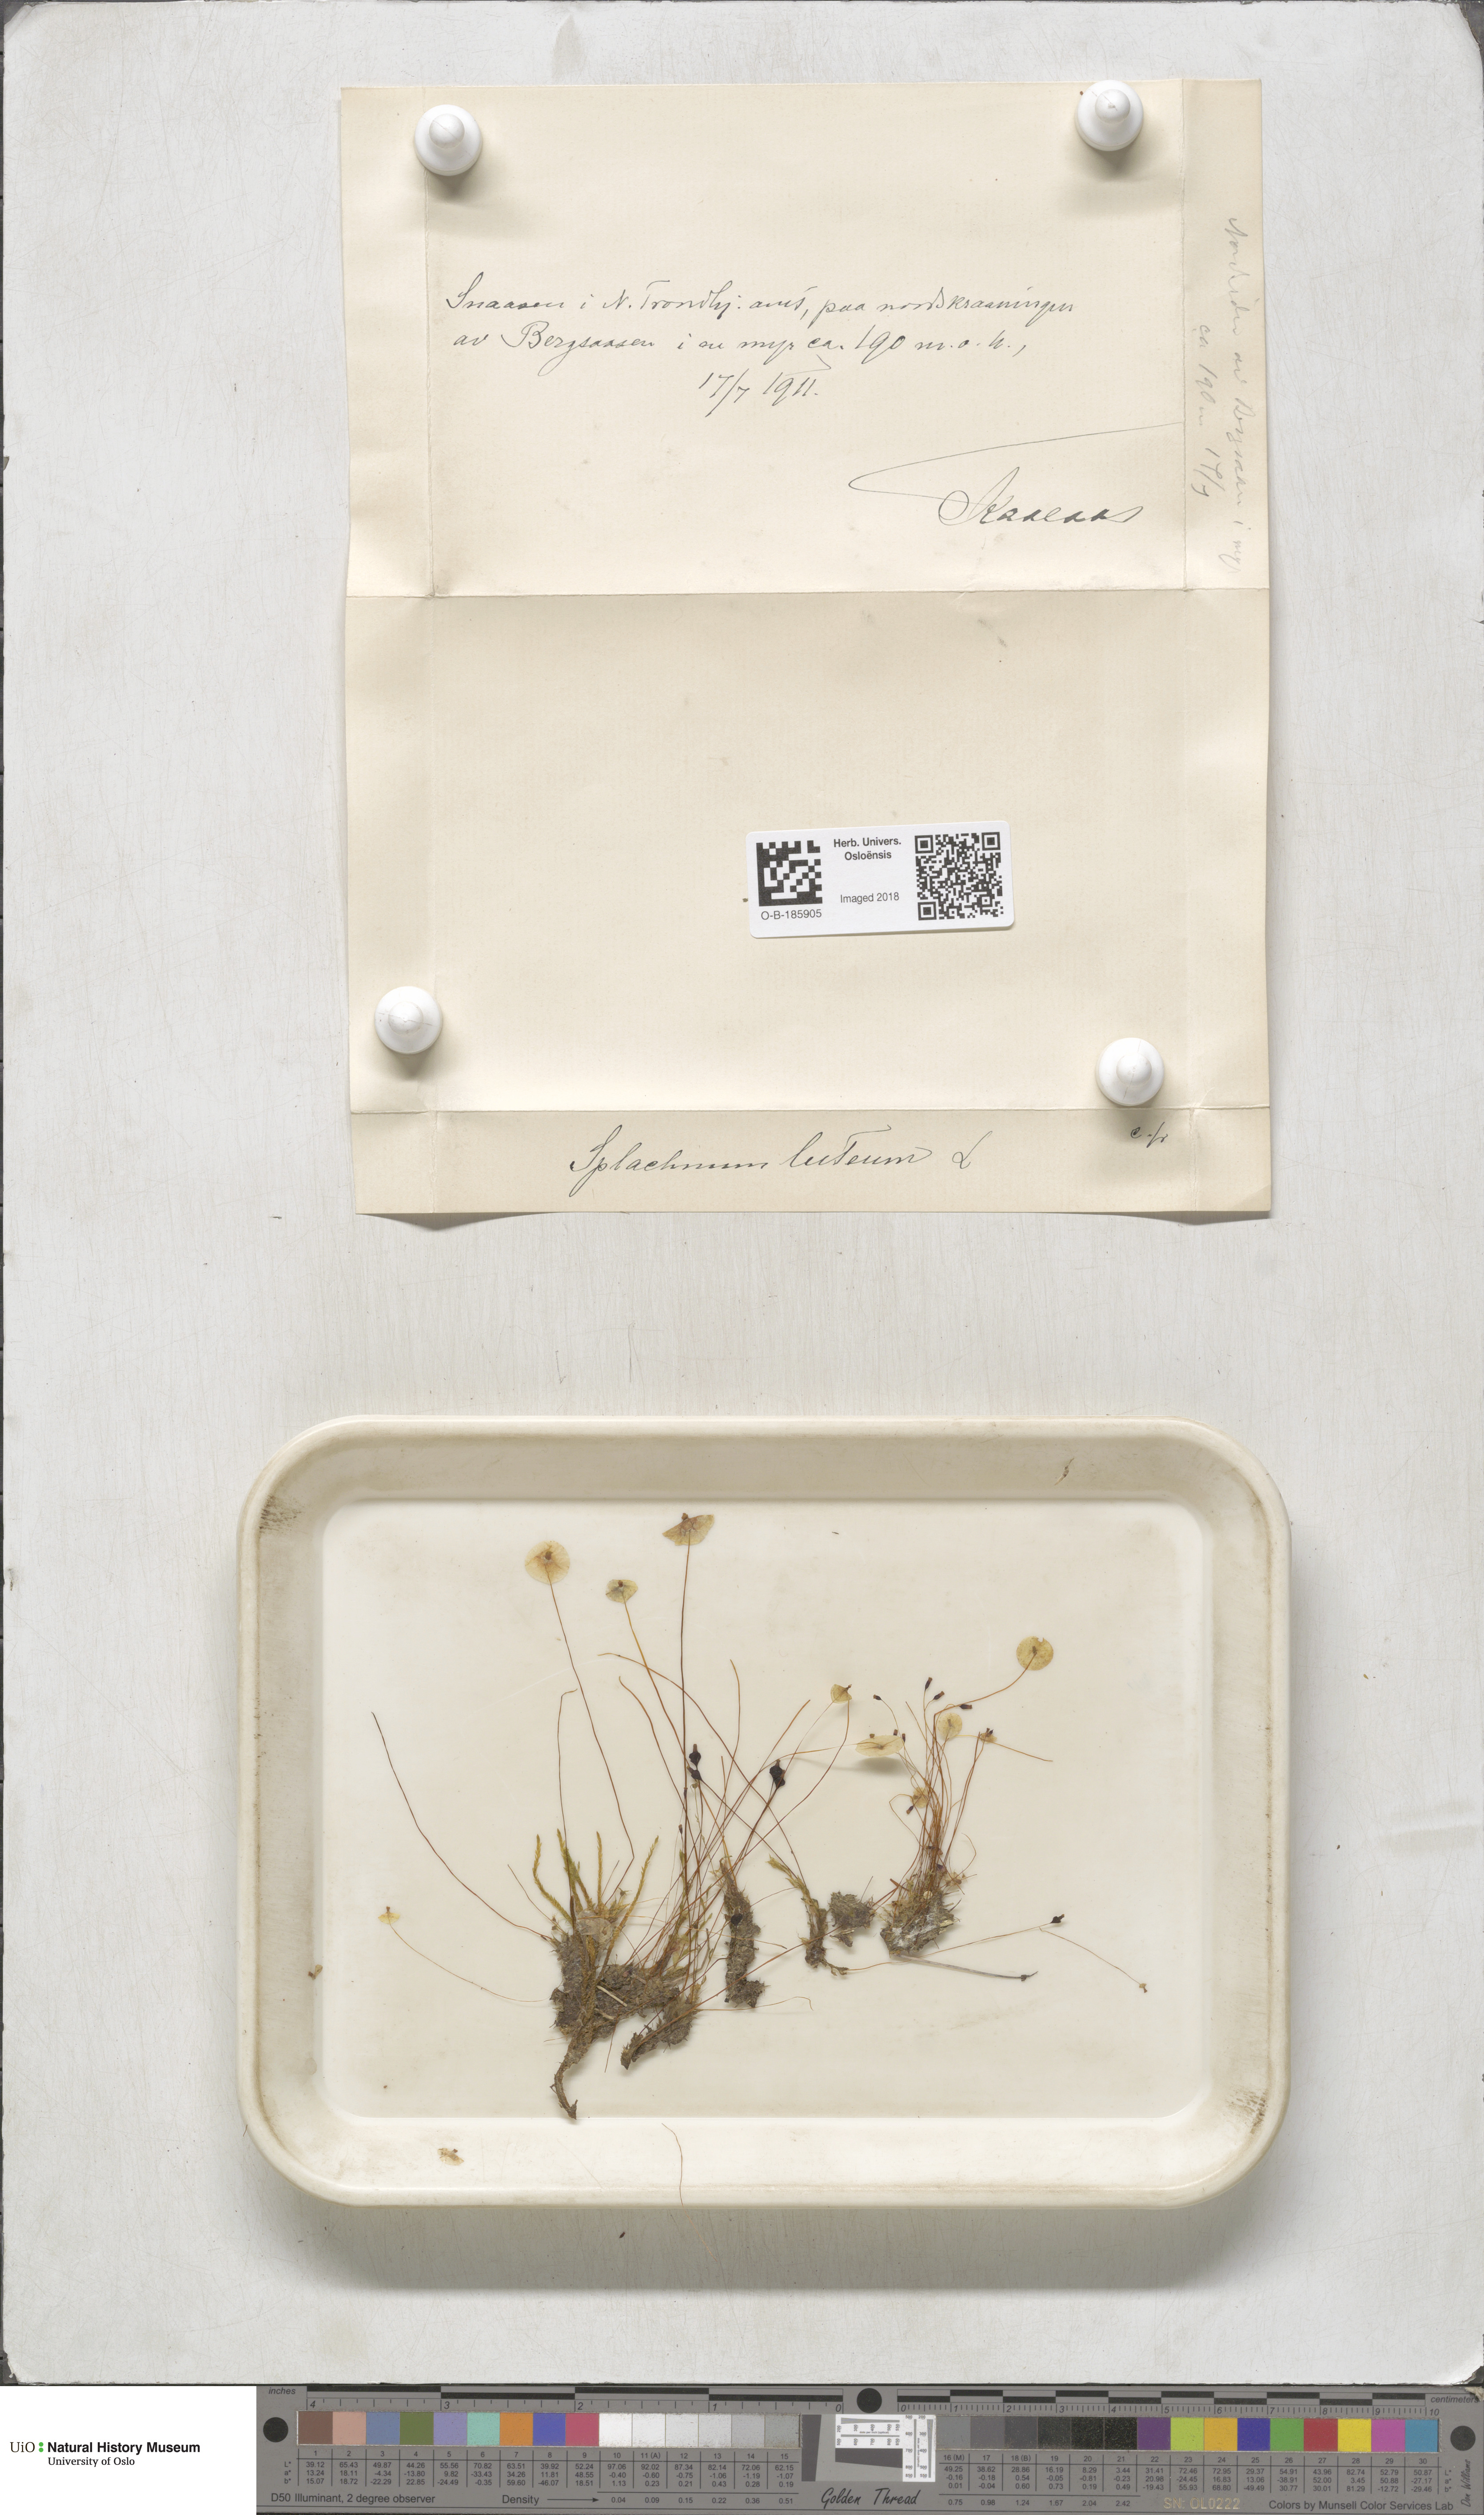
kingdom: Plantae
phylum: Bryophyta
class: Bryopsida
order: Splachnales
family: Splachnaceae
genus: Splachnum
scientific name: Splachnum luteum
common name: Yellow dung moss
